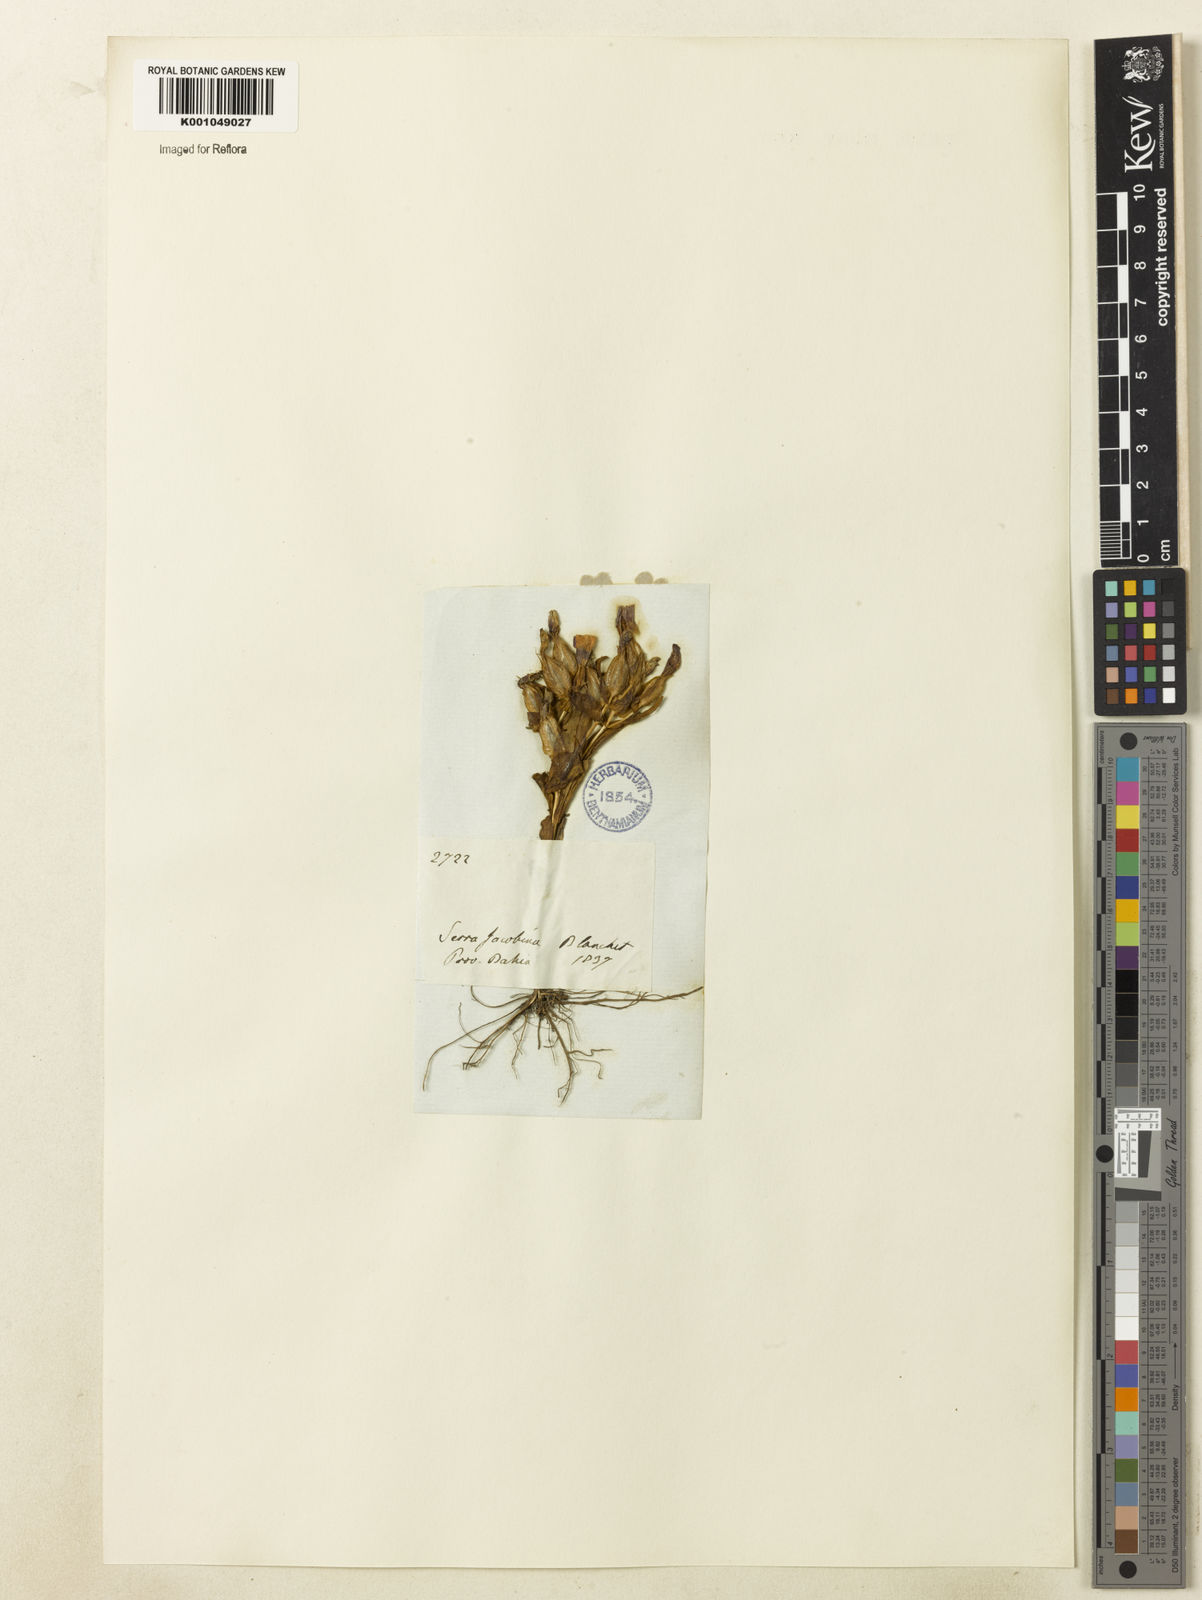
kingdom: Plantae
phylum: Tracheophyta
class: Magnoliopsida
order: Gentianales
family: Gentianaceae
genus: Schultesia
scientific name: Schultesia guianensis
